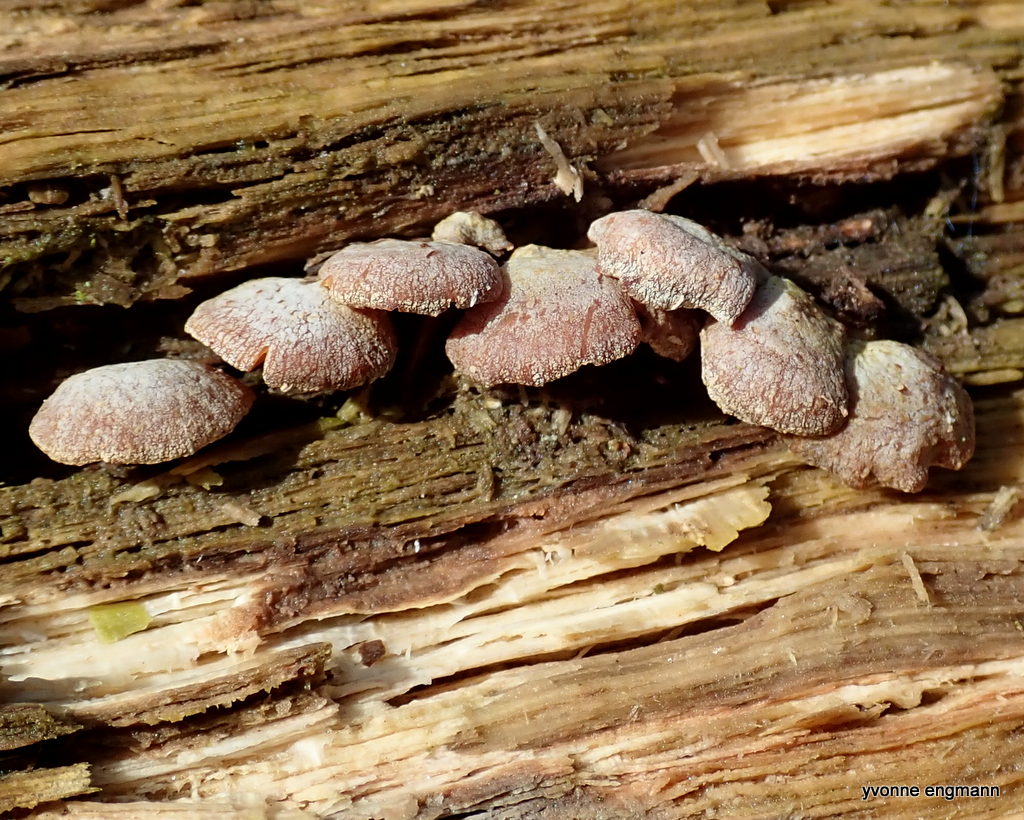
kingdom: Fungi
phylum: Basidiomycota
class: Agaricomycetes
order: Agaricales
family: Mycenaceae
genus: Panellus
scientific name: Panellus stipticus
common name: kliddet epaulethat
